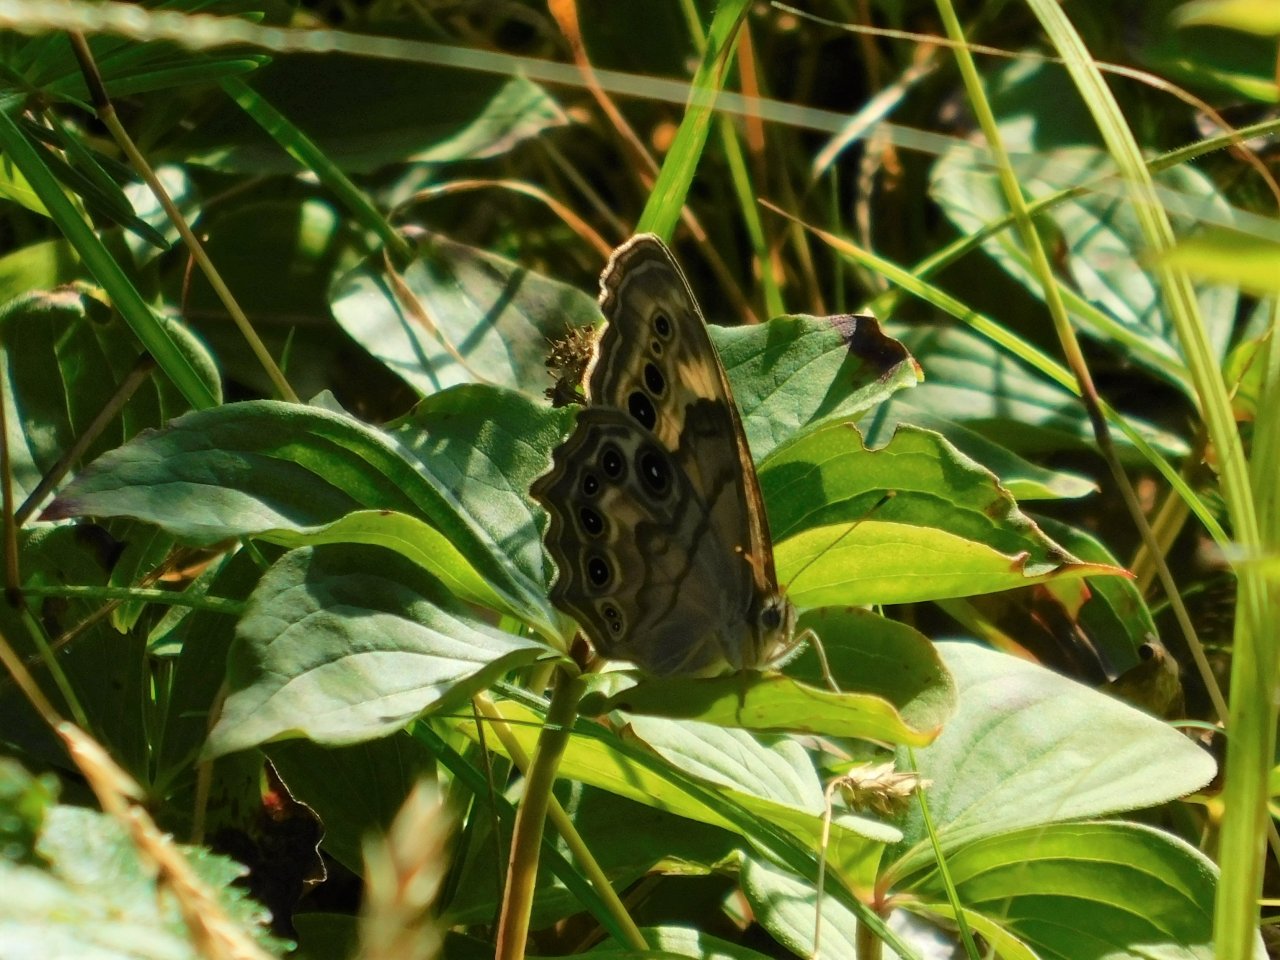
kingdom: Animalia
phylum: Arthropoda
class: Insecta
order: Lepidoptera
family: Nymphalidae
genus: Lethe
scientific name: Lethe anthedon
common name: Northern Pearly-Eye
